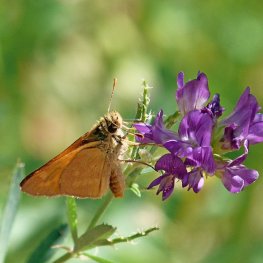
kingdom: Animalia
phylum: Arthropoda
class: Insecta
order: Lepidoptera
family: Hesperiidae
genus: Ochlodes
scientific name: Ochlodes sylvanoides
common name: Woodland Skipper
